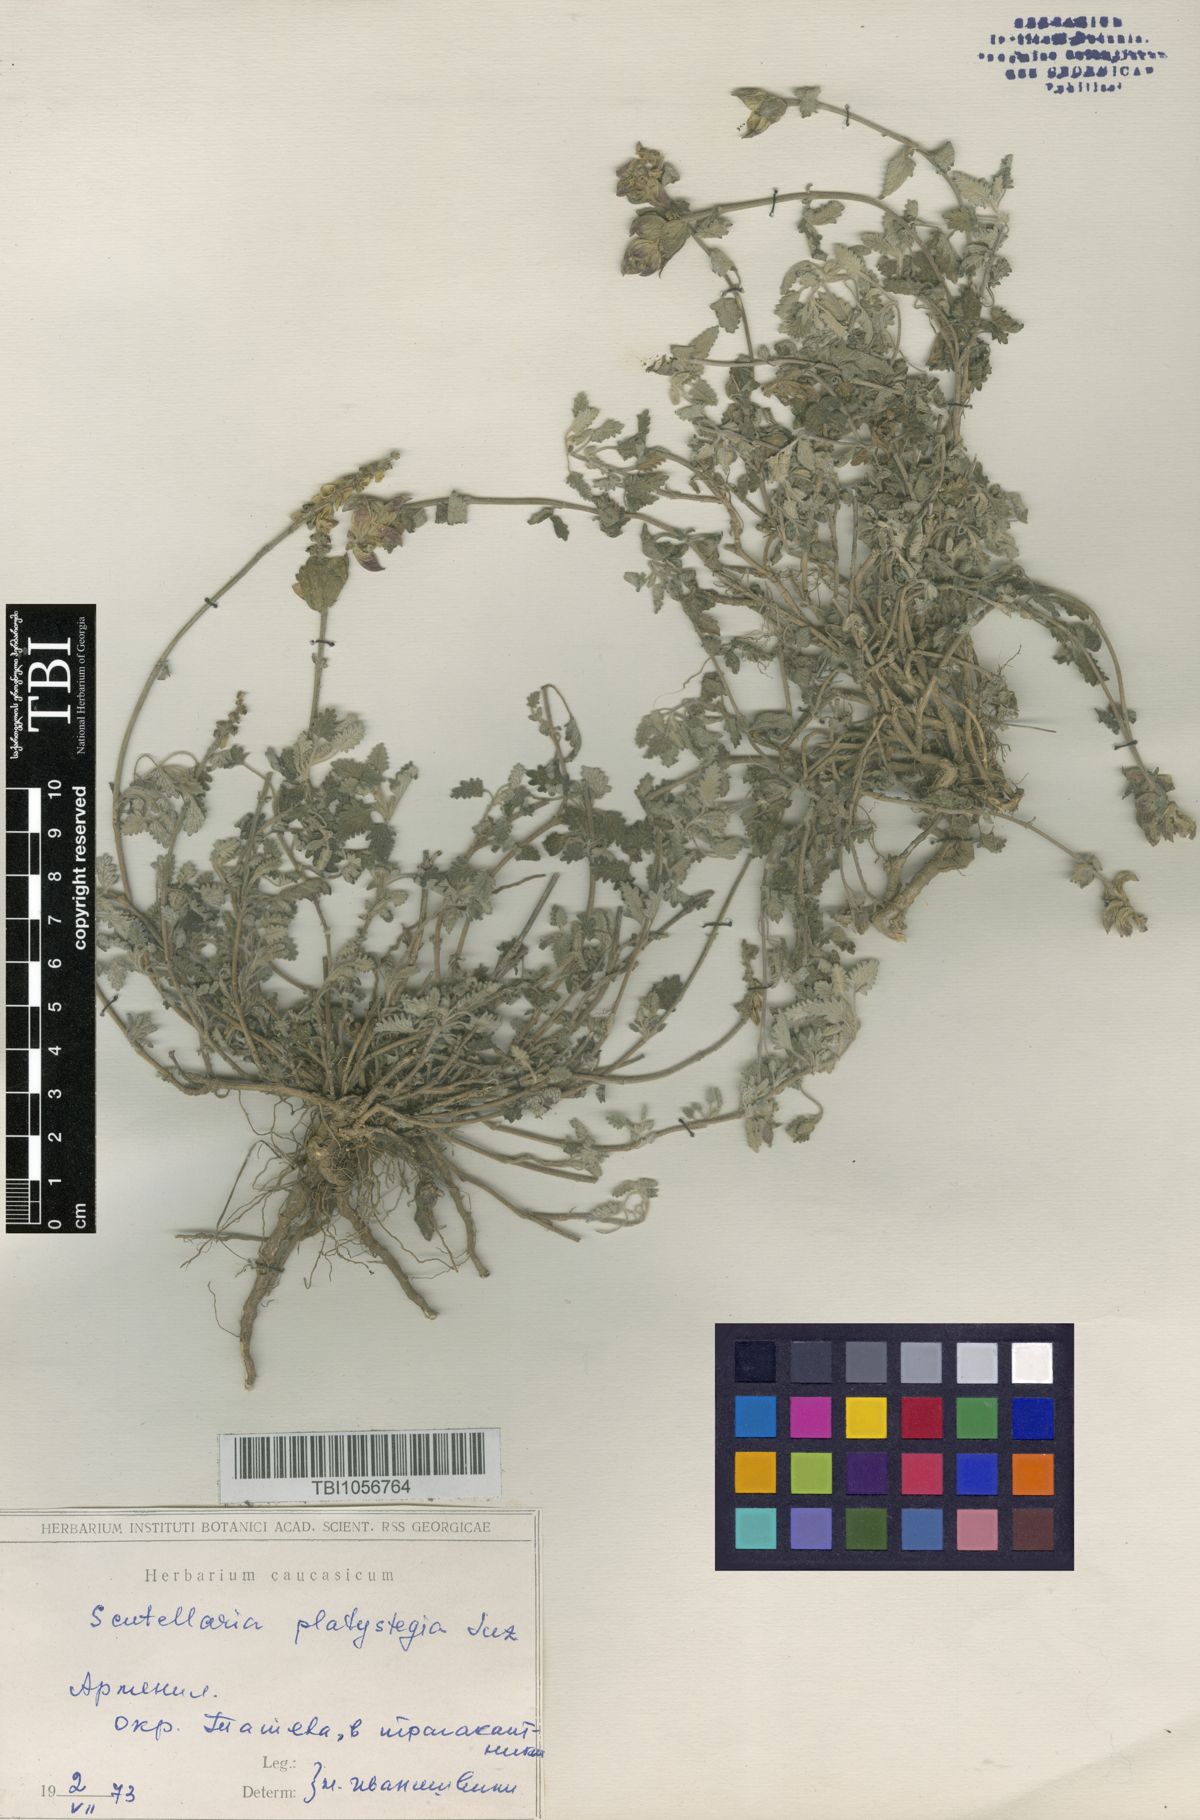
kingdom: Plantae
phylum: Tracheophyta
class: Magnoliopsida
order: Lamiales
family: Lamiaceae
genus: Scutellaria
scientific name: Scutellaria platystegia
